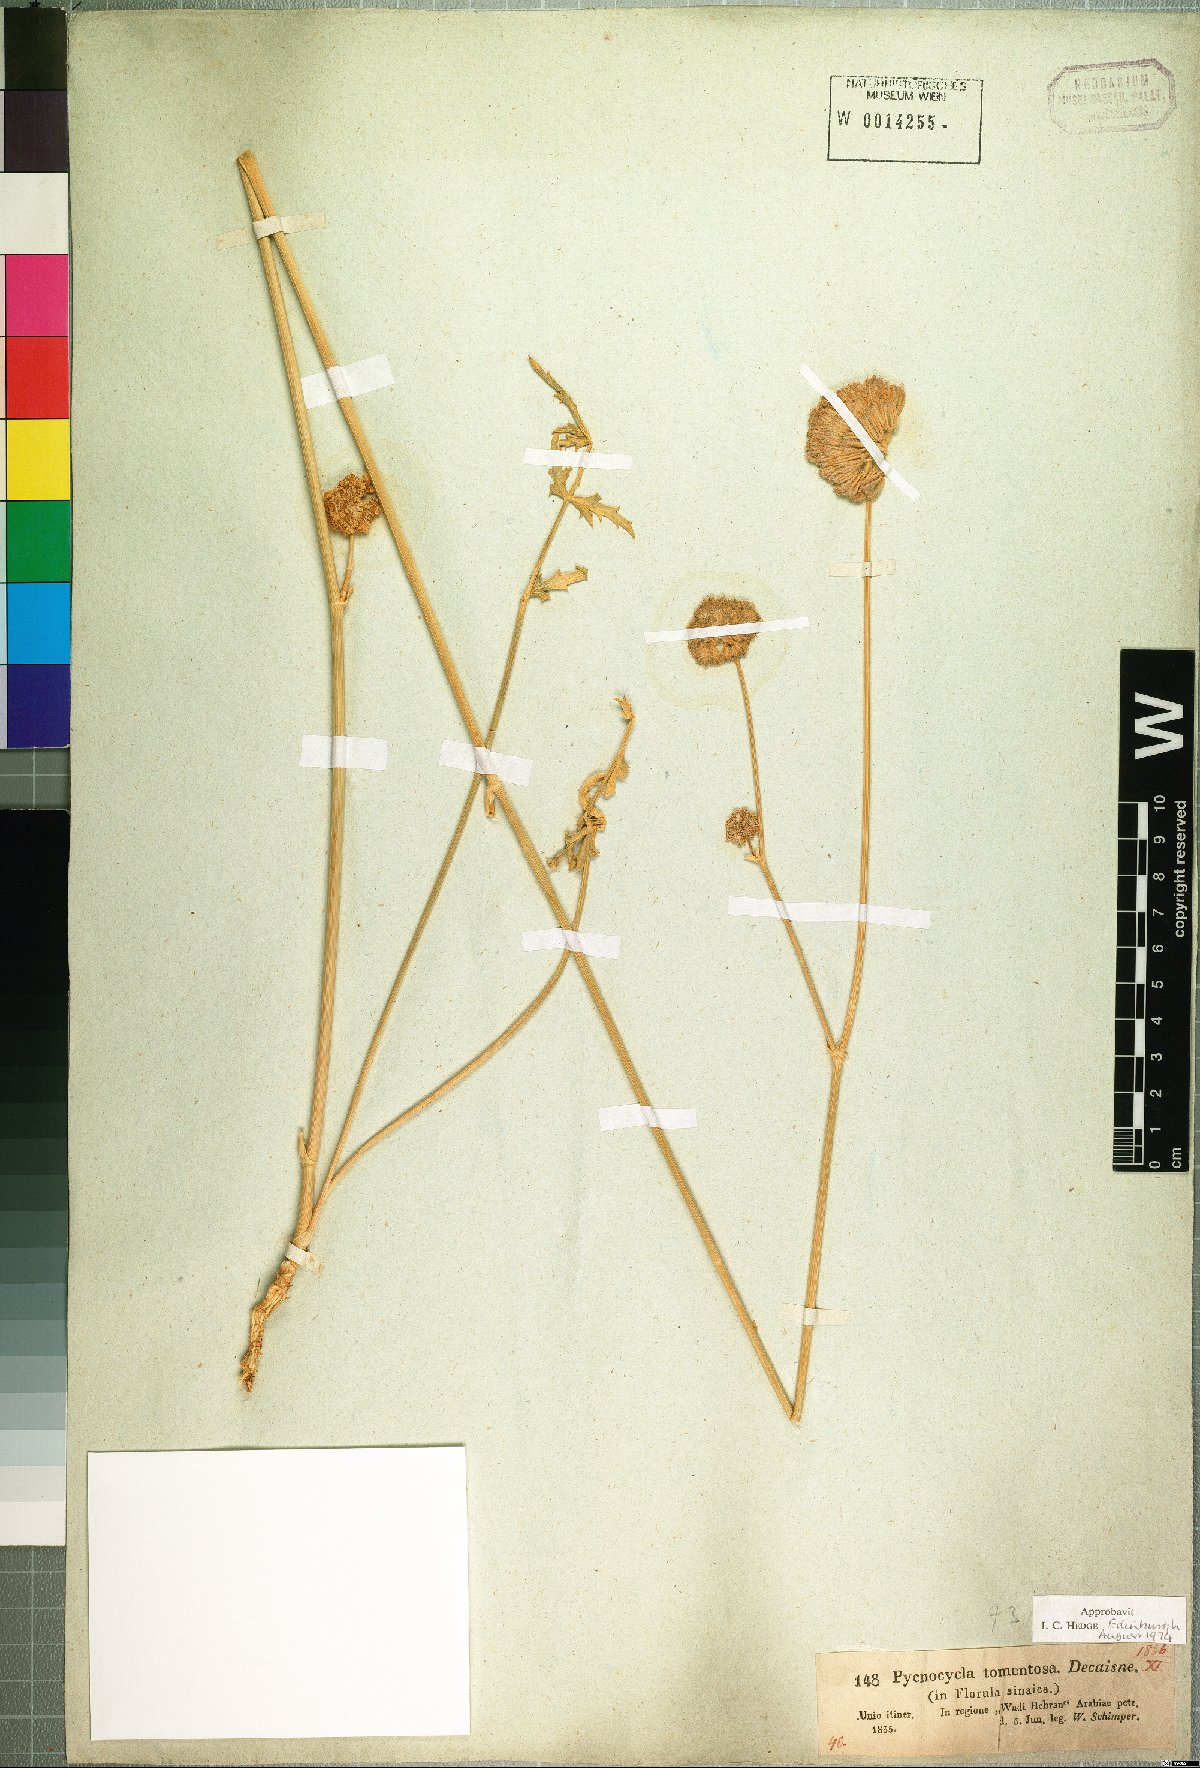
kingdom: Plantae
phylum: Tracheophyta
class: Magnoliopsida
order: Apiales
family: Apiaceae
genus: Pycnocycla
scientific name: Pycnocycla tomentosa
